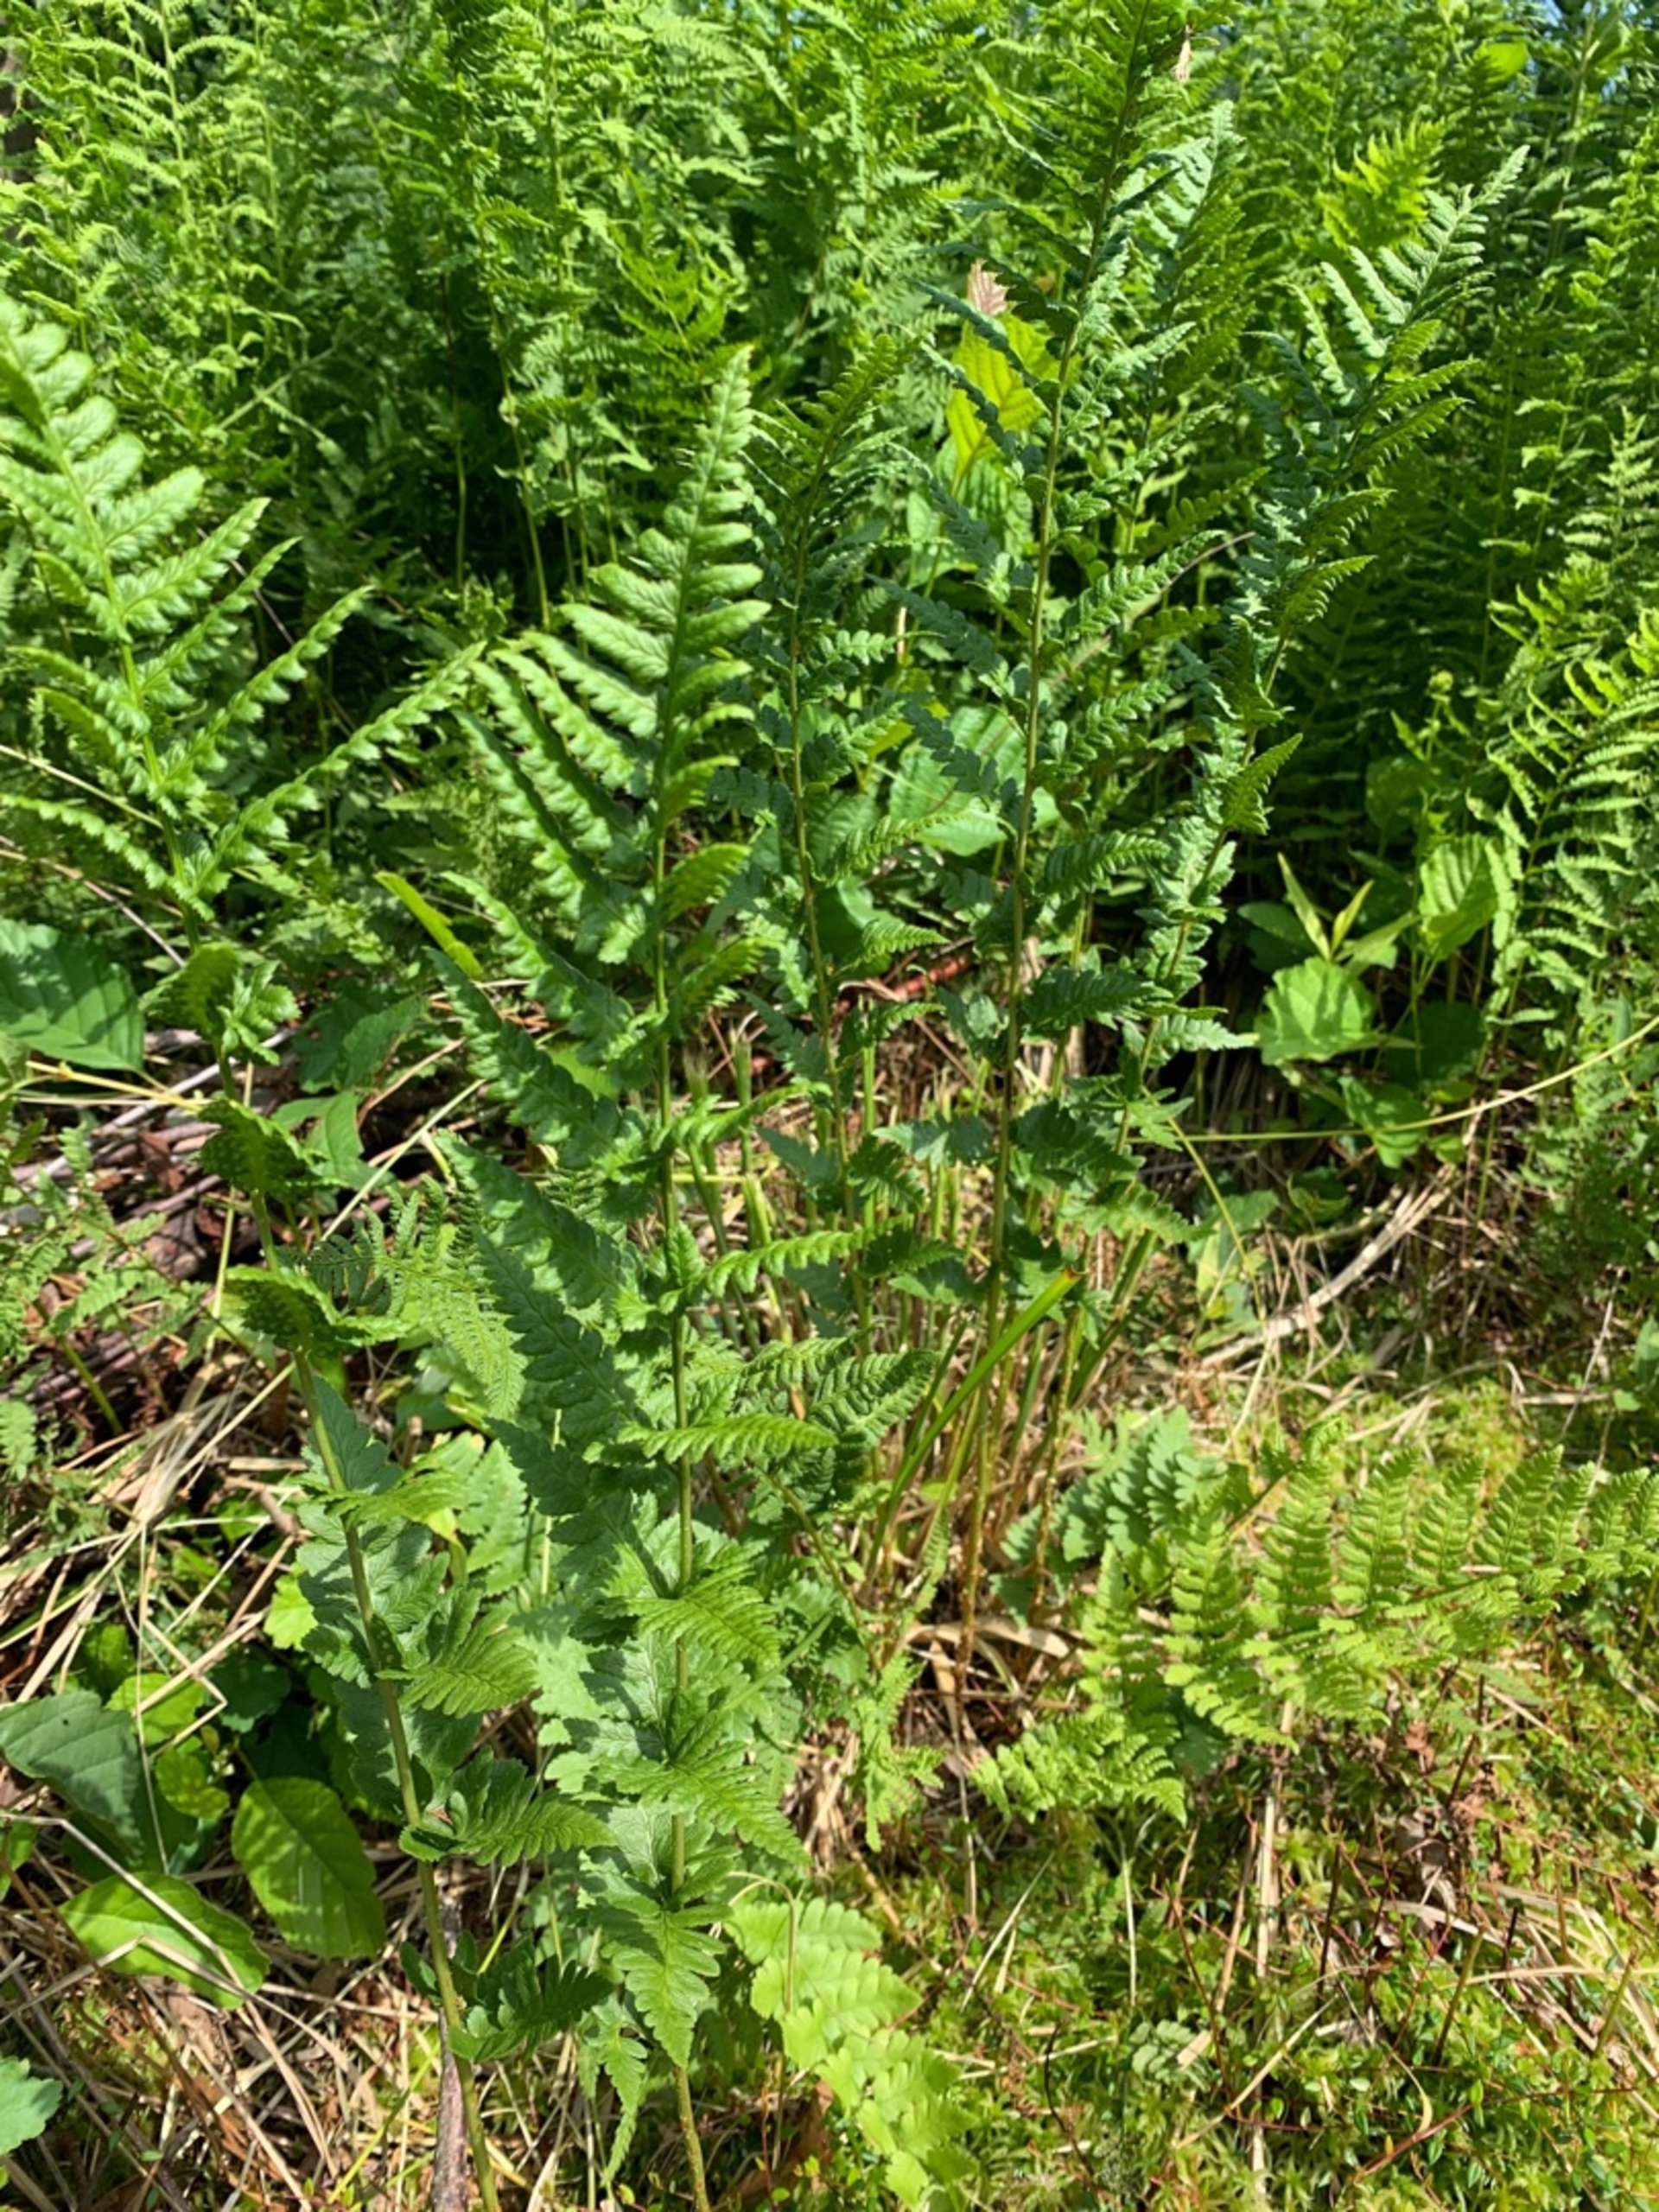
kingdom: Plantae
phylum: Tracheophyta
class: Polypodiopsida
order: Polypodiales
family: Dryopteridaceae
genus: Dryopteris
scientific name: Dryopteris cristata
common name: Butfinnet mangeløv
